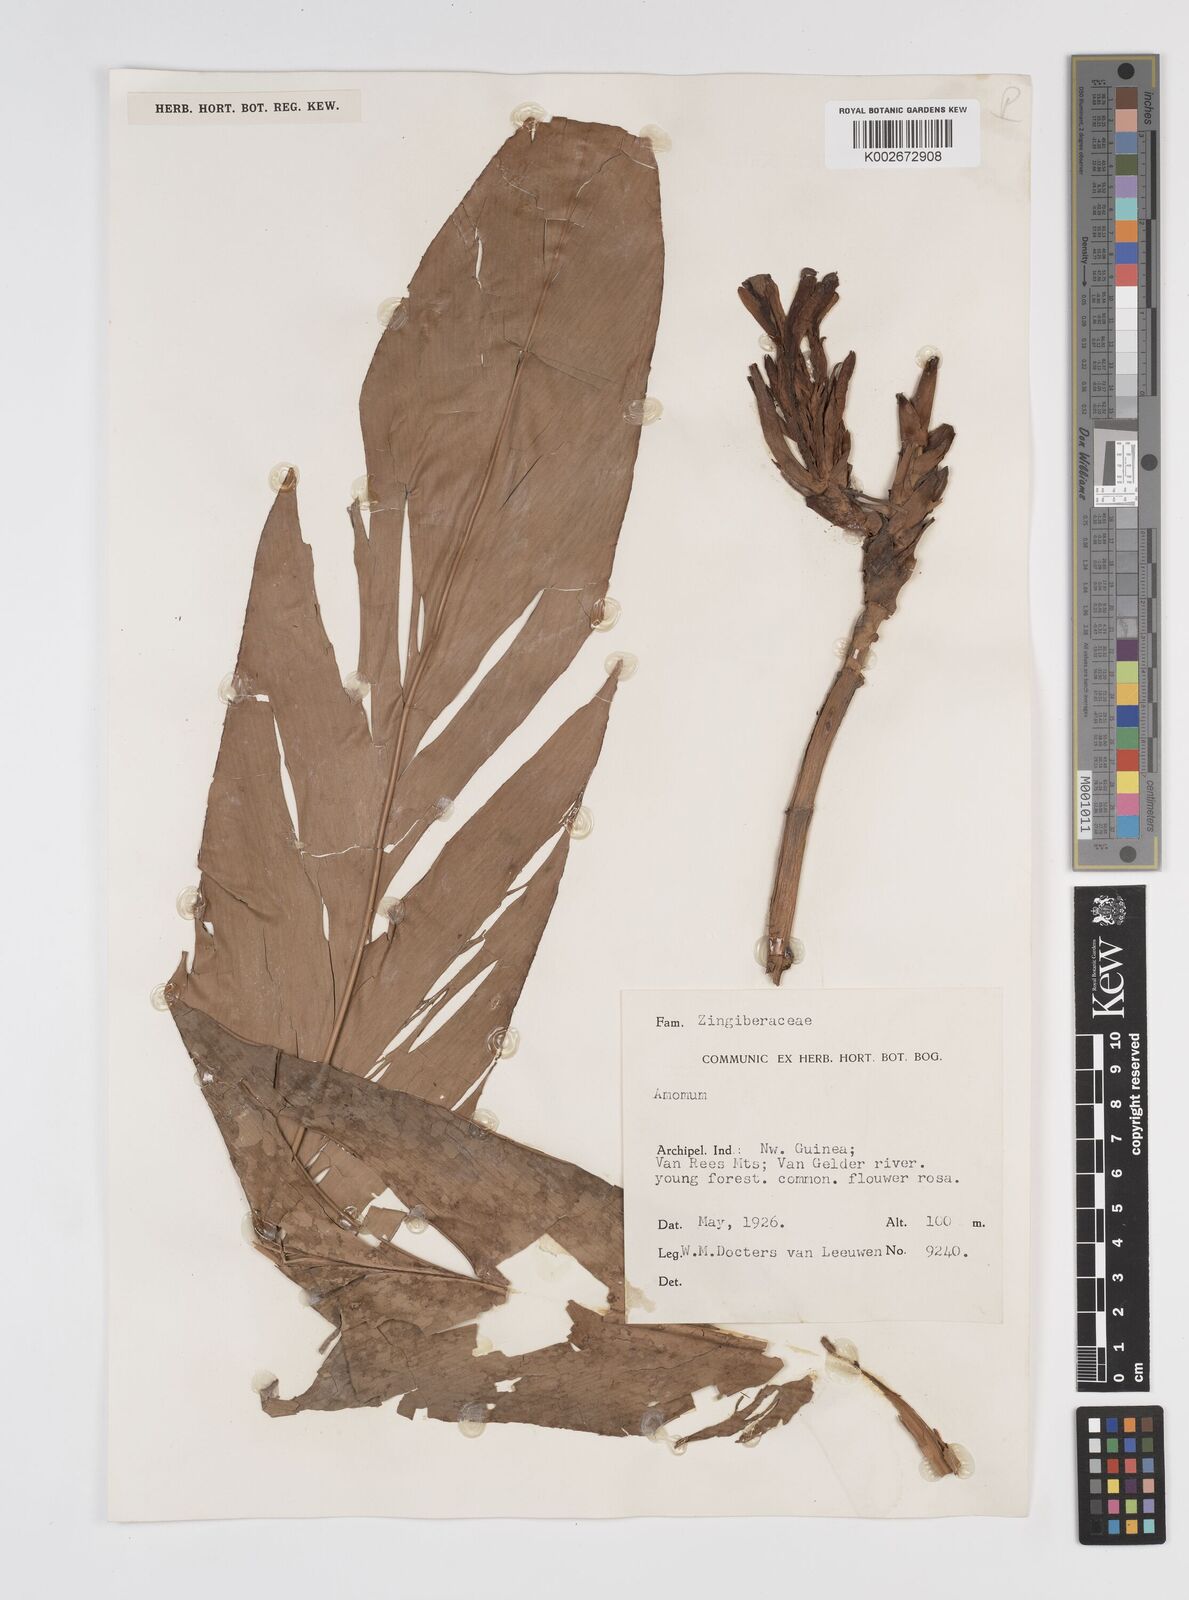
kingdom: Plantae
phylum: Tracheophyta
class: Liliopsida
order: Zingiberales
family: Zingiberaceae
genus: Etlingera
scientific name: Etlingera
